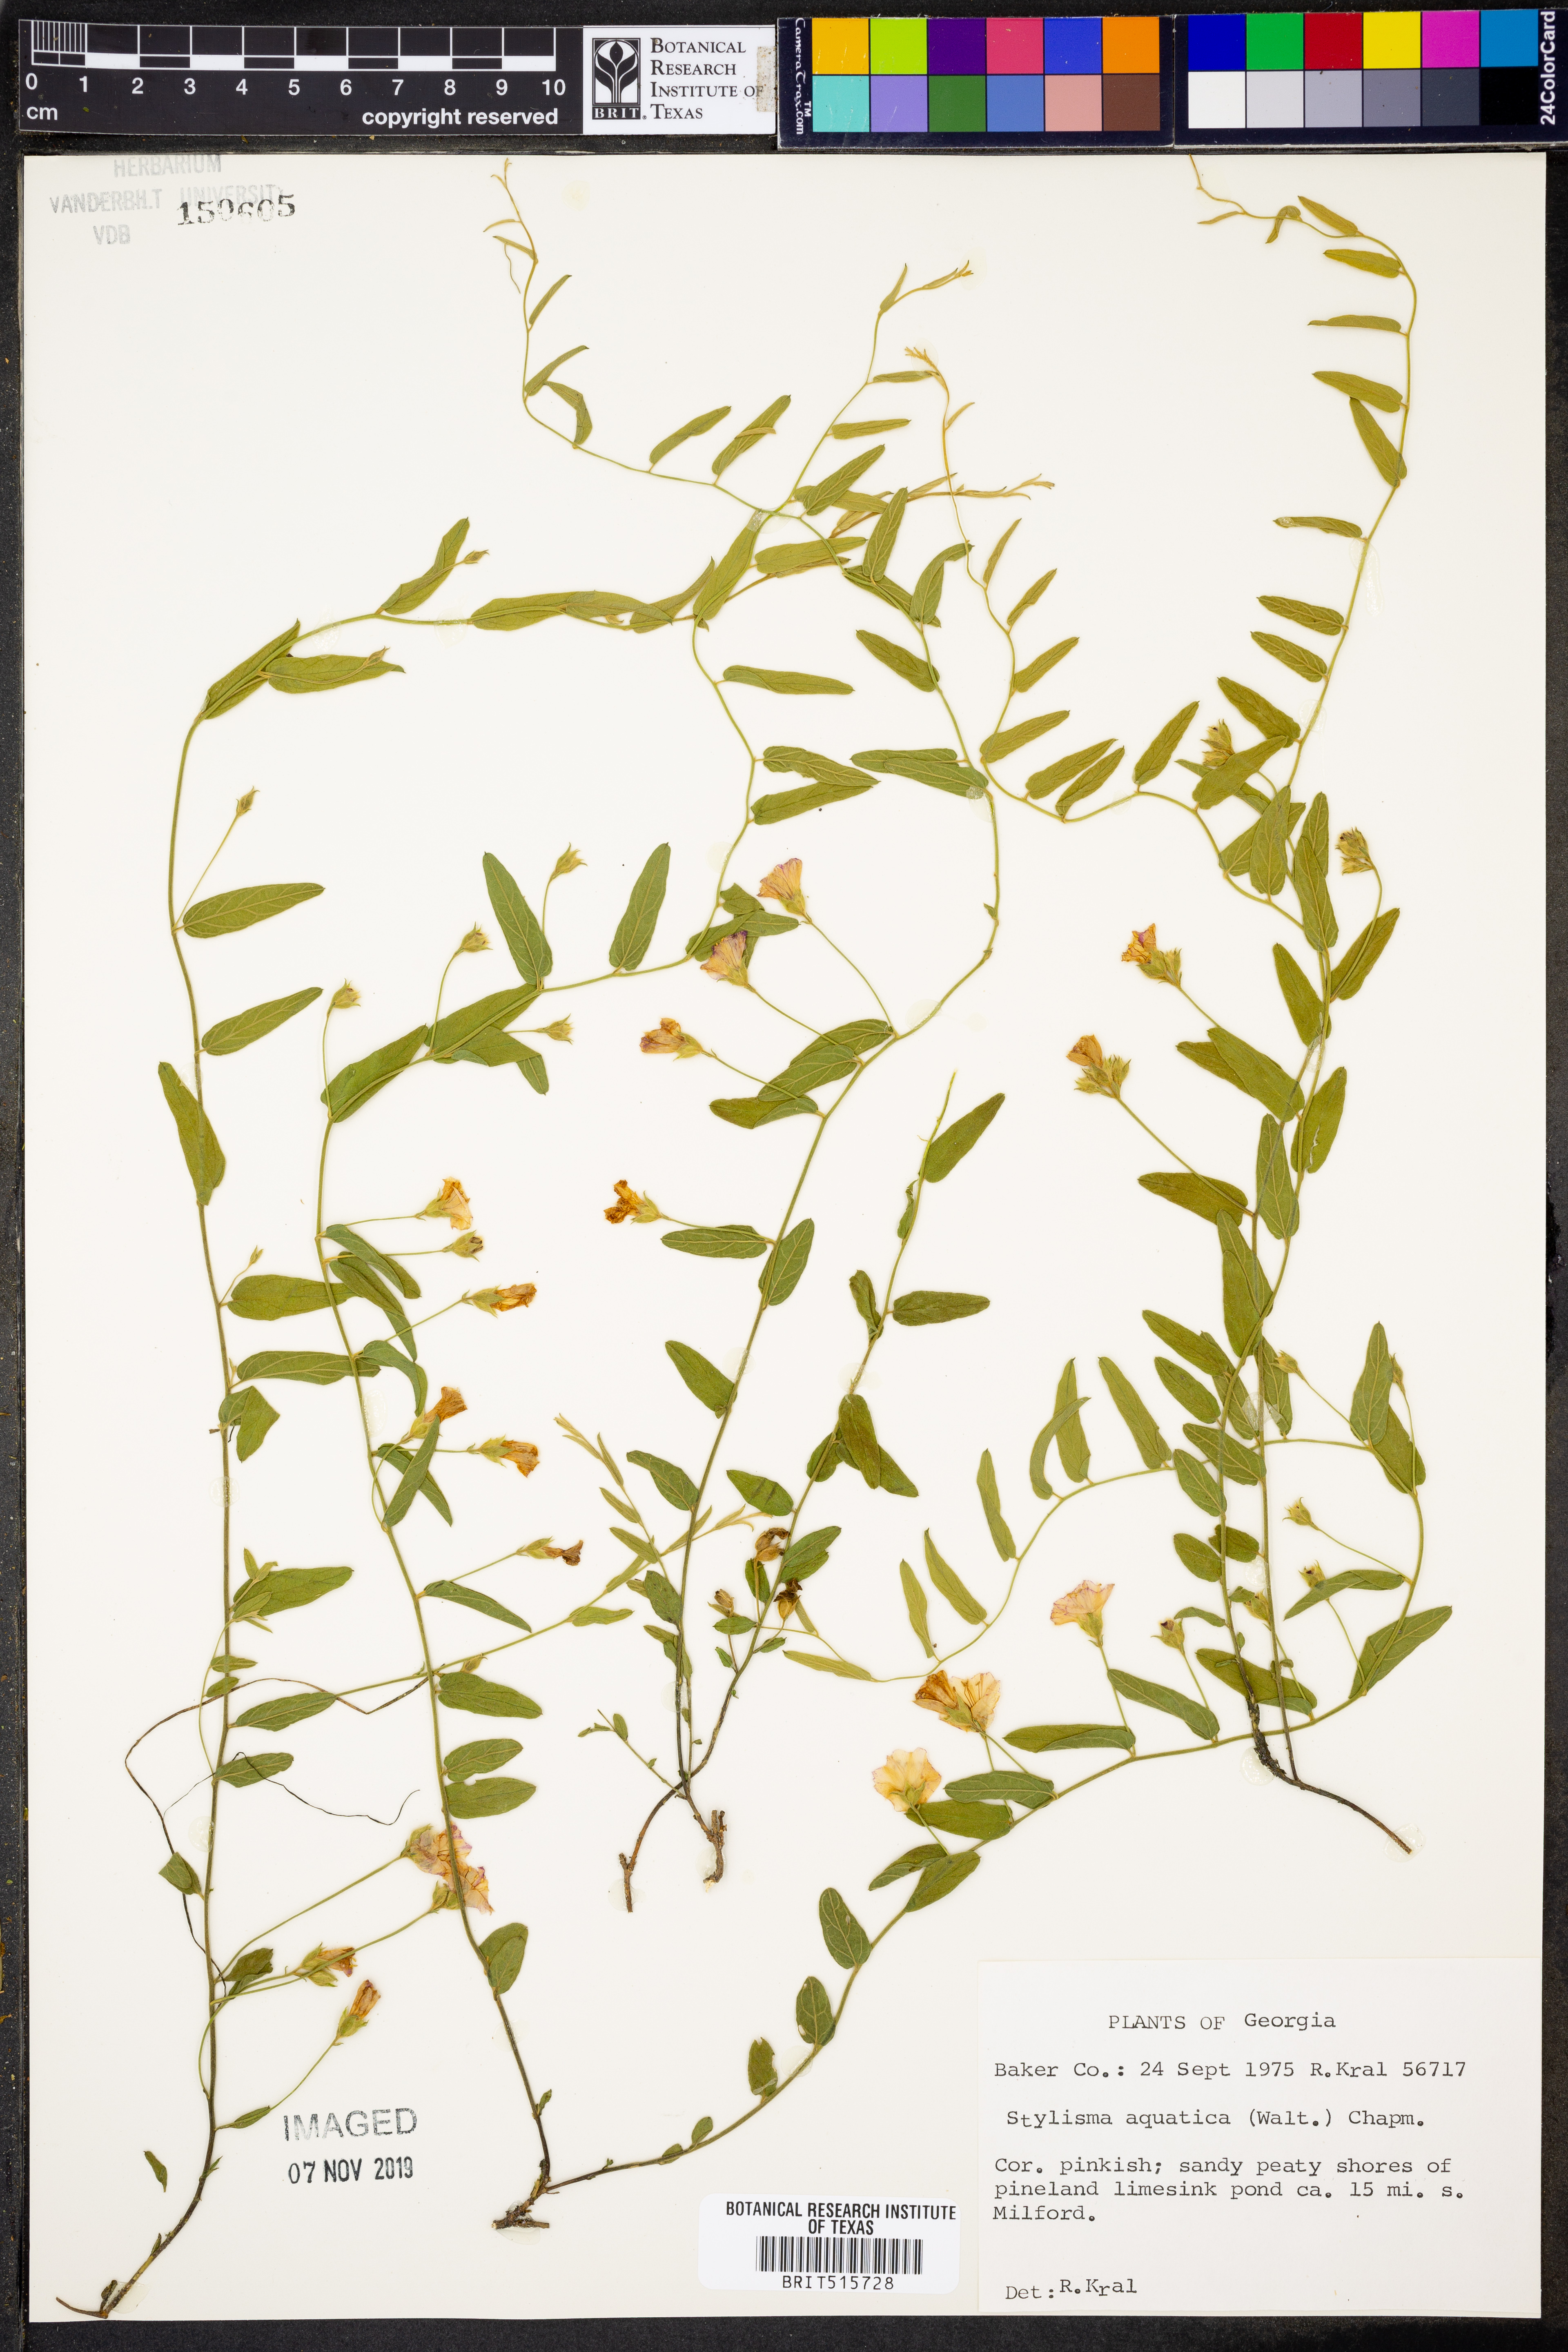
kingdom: Plantae
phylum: Tracheophyta
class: Magnoliopsida
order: Solanales
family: Convolvulaceae
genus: Stylisma
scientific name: Stylisma aquatica
